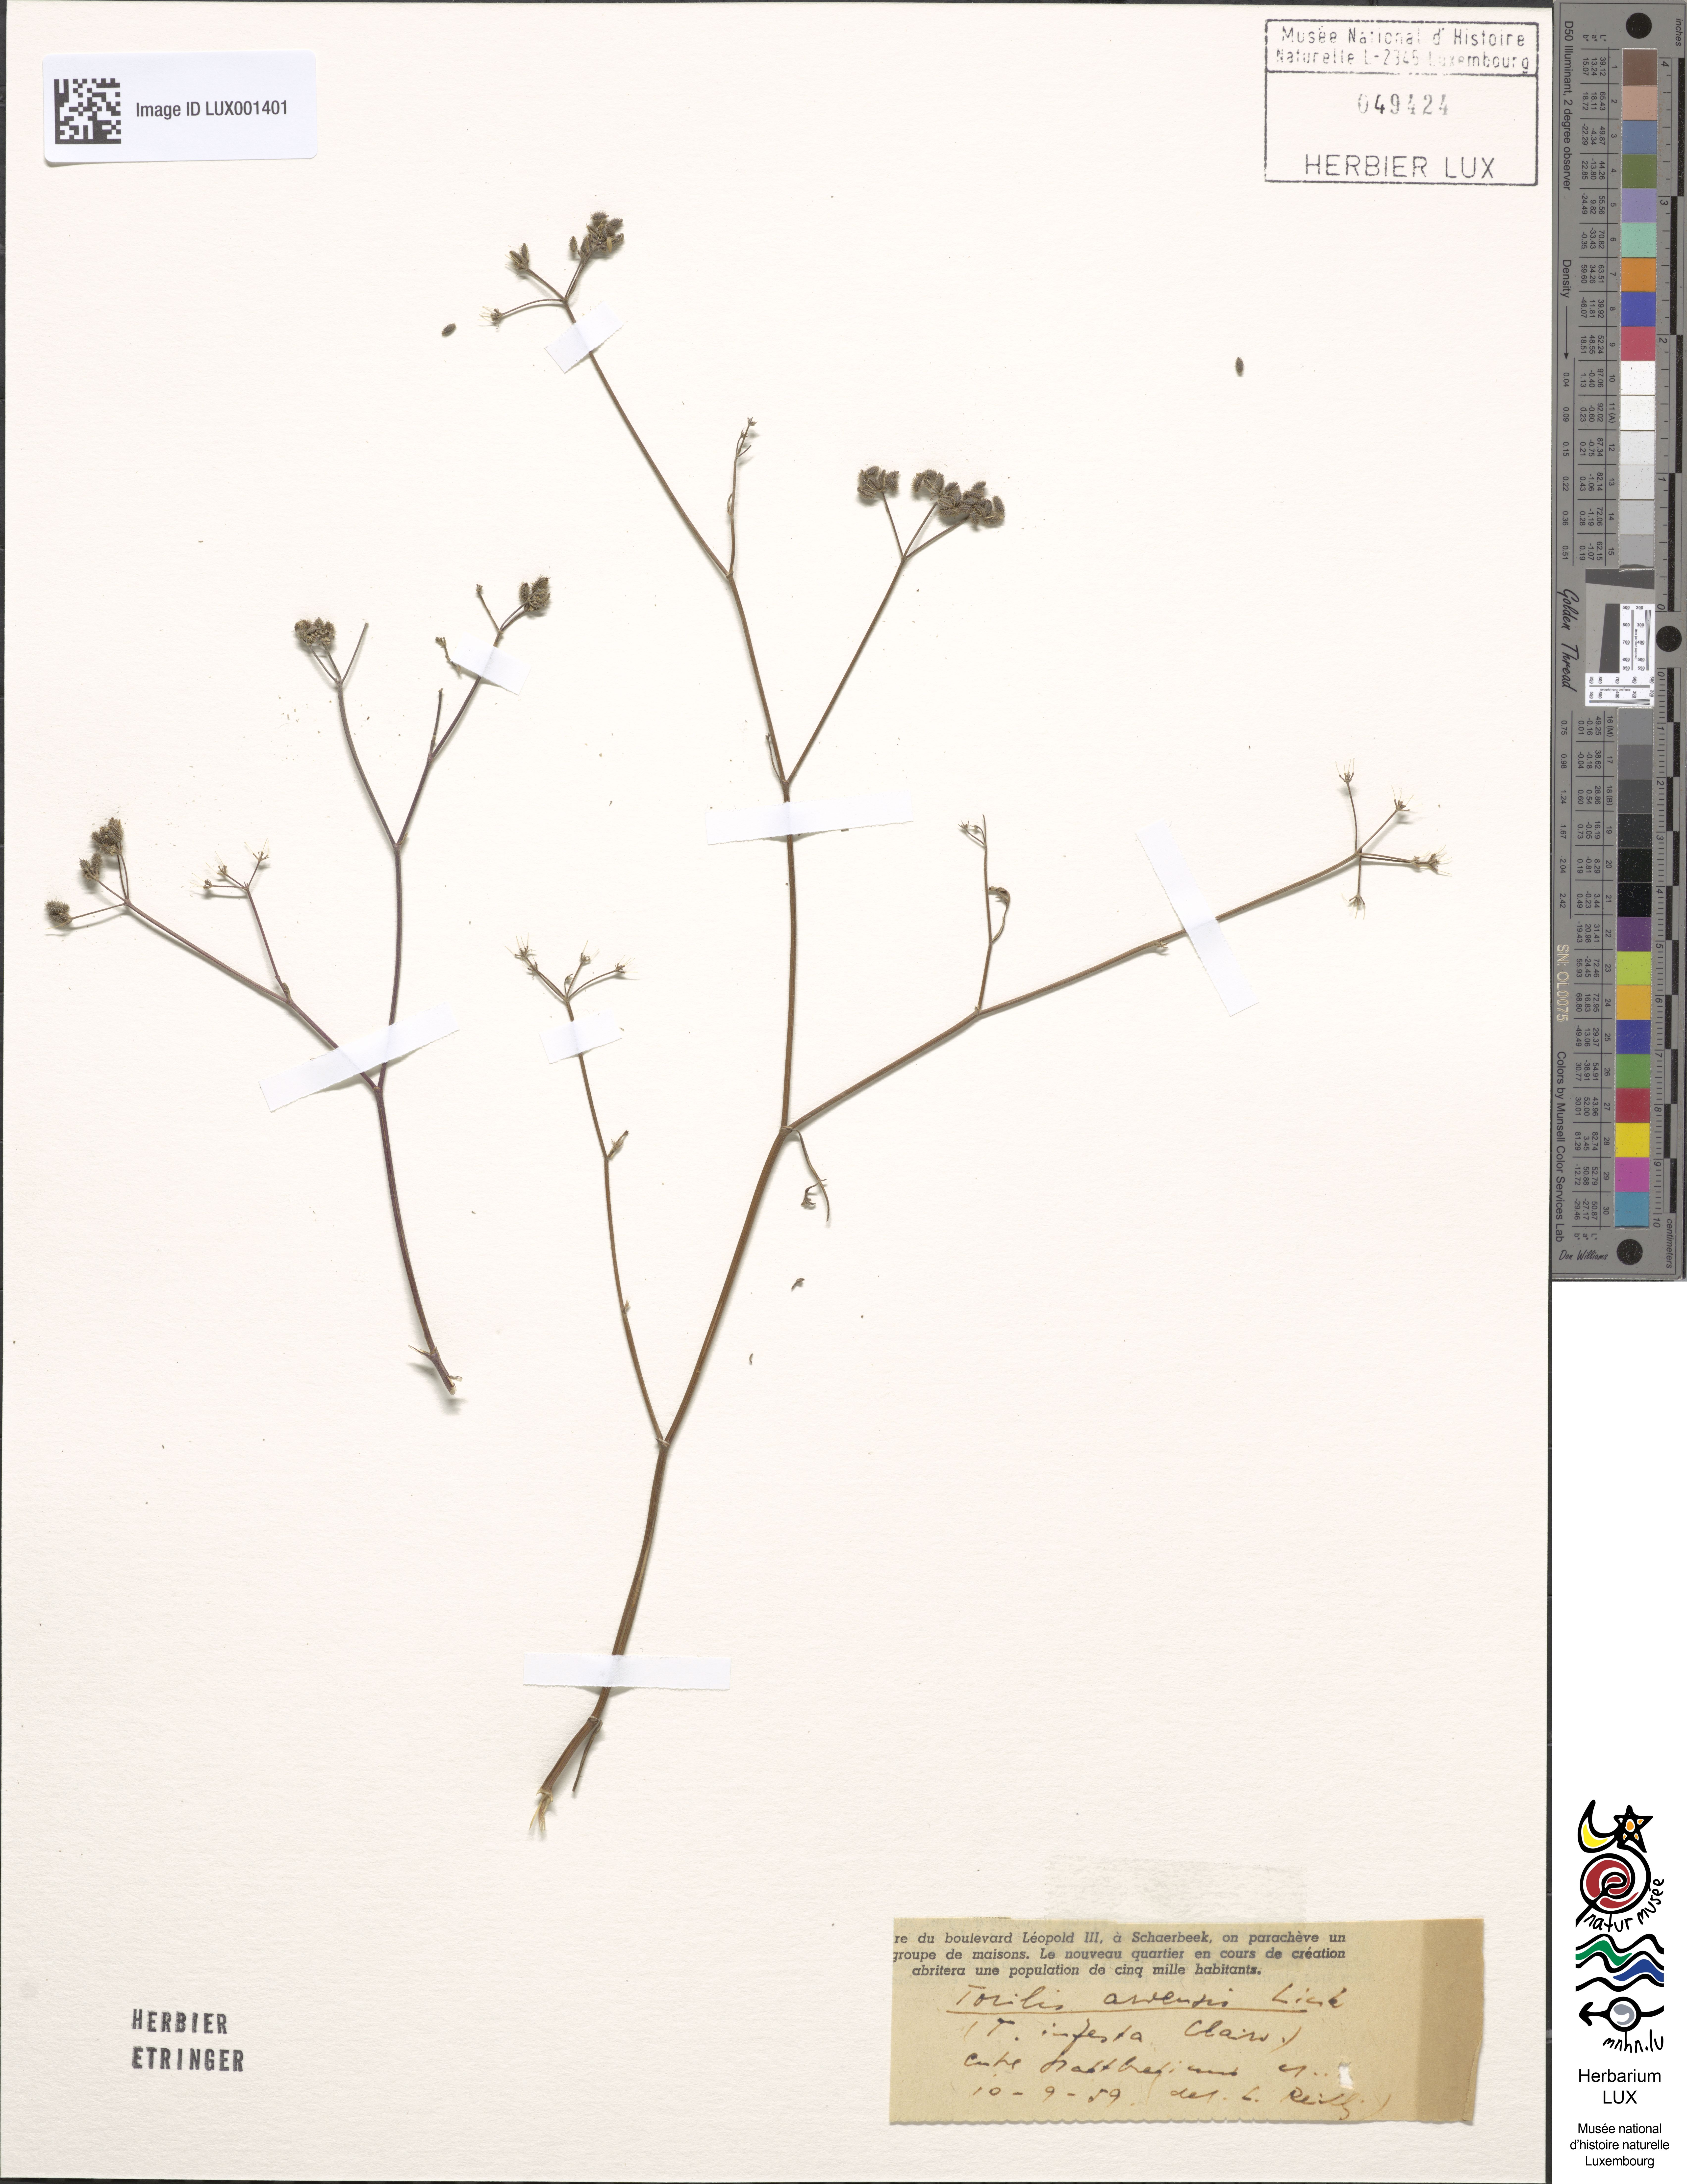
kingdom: Plantae
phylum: Tracheophyta
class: Magnoliopsida
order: Apiales
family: Apiaceae
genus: Torilis
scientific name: Torilis arvensis
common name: Spreading hedge-parsley
